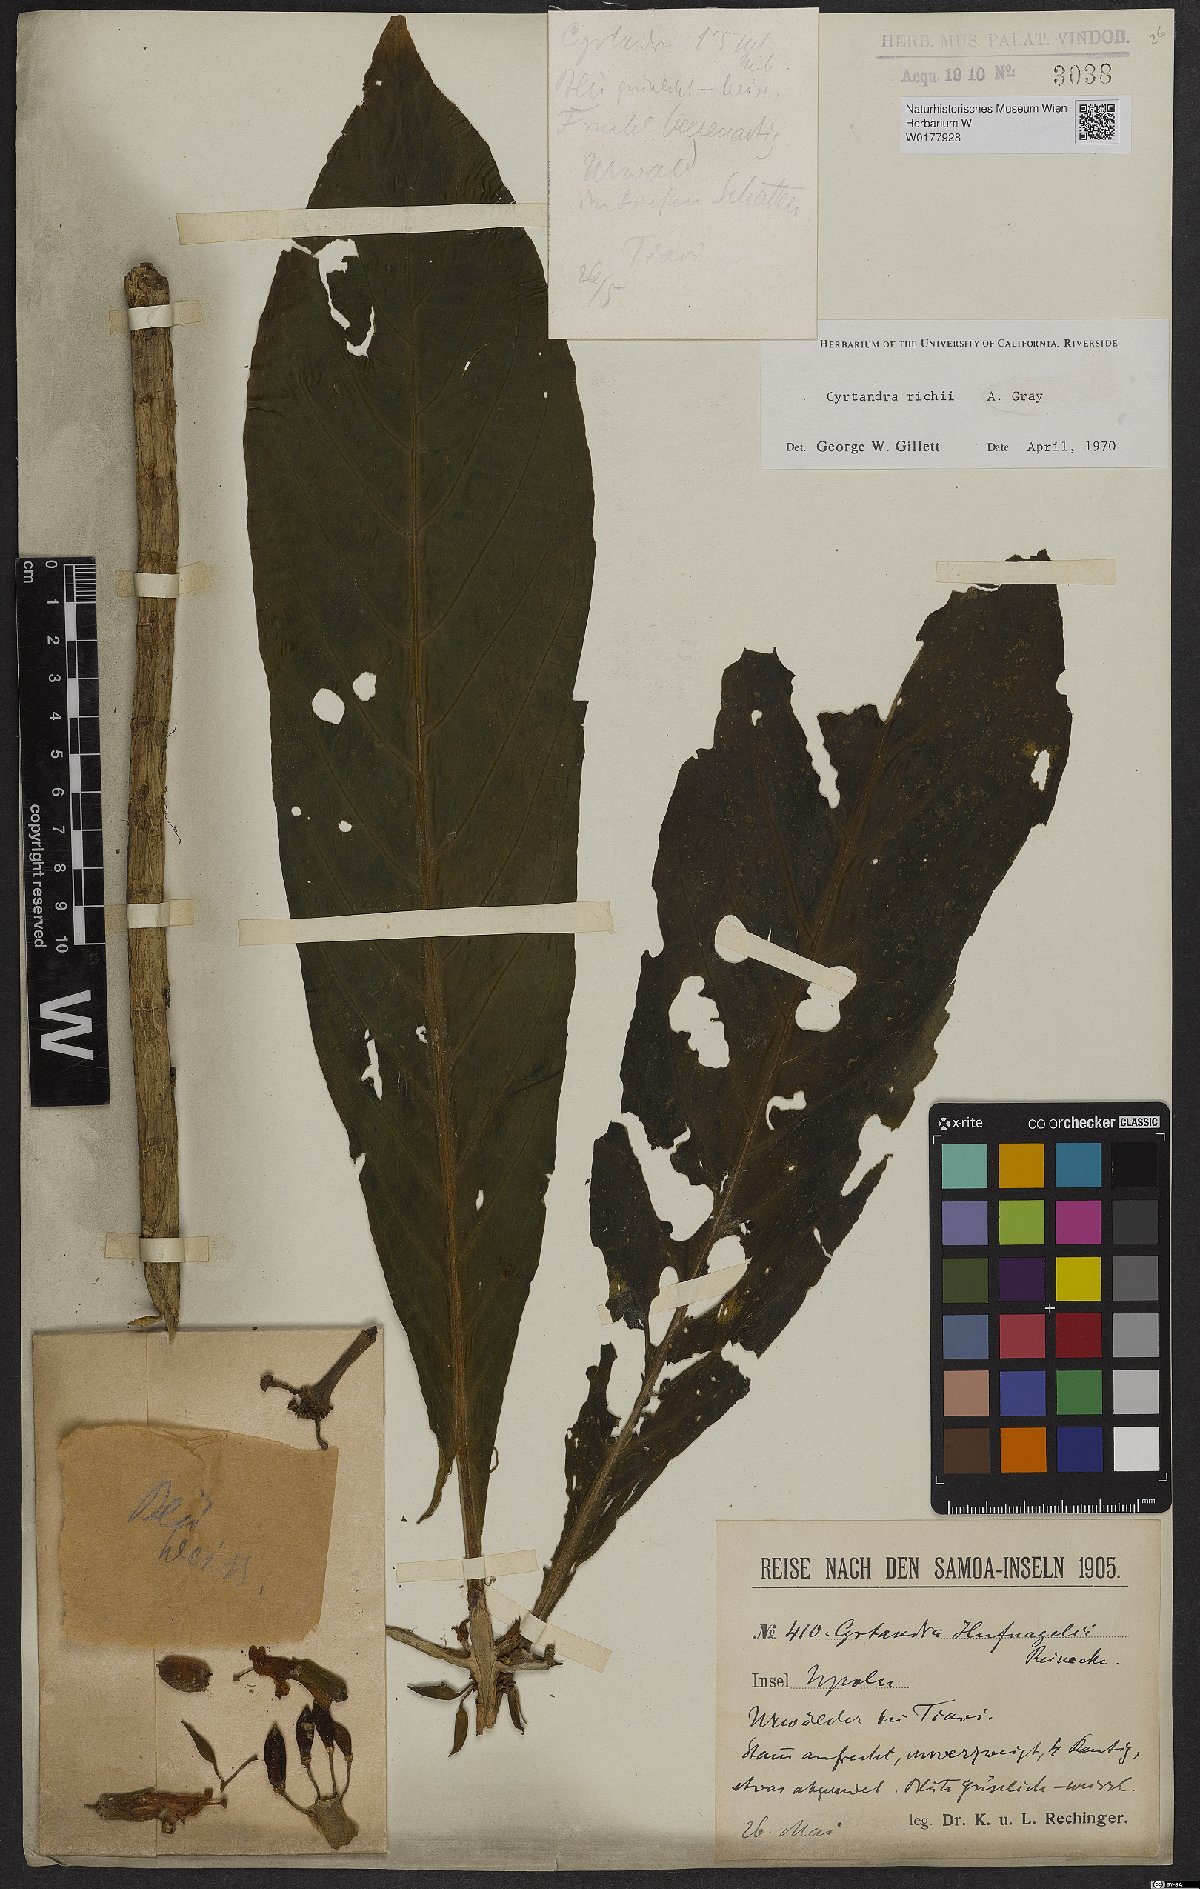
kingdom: Plantae
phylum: Tracheophyta
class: Magnoliopsida
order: Lamiales
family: Gesneriaceae
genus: Cyrtandra
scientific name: Cyrtandra richii
